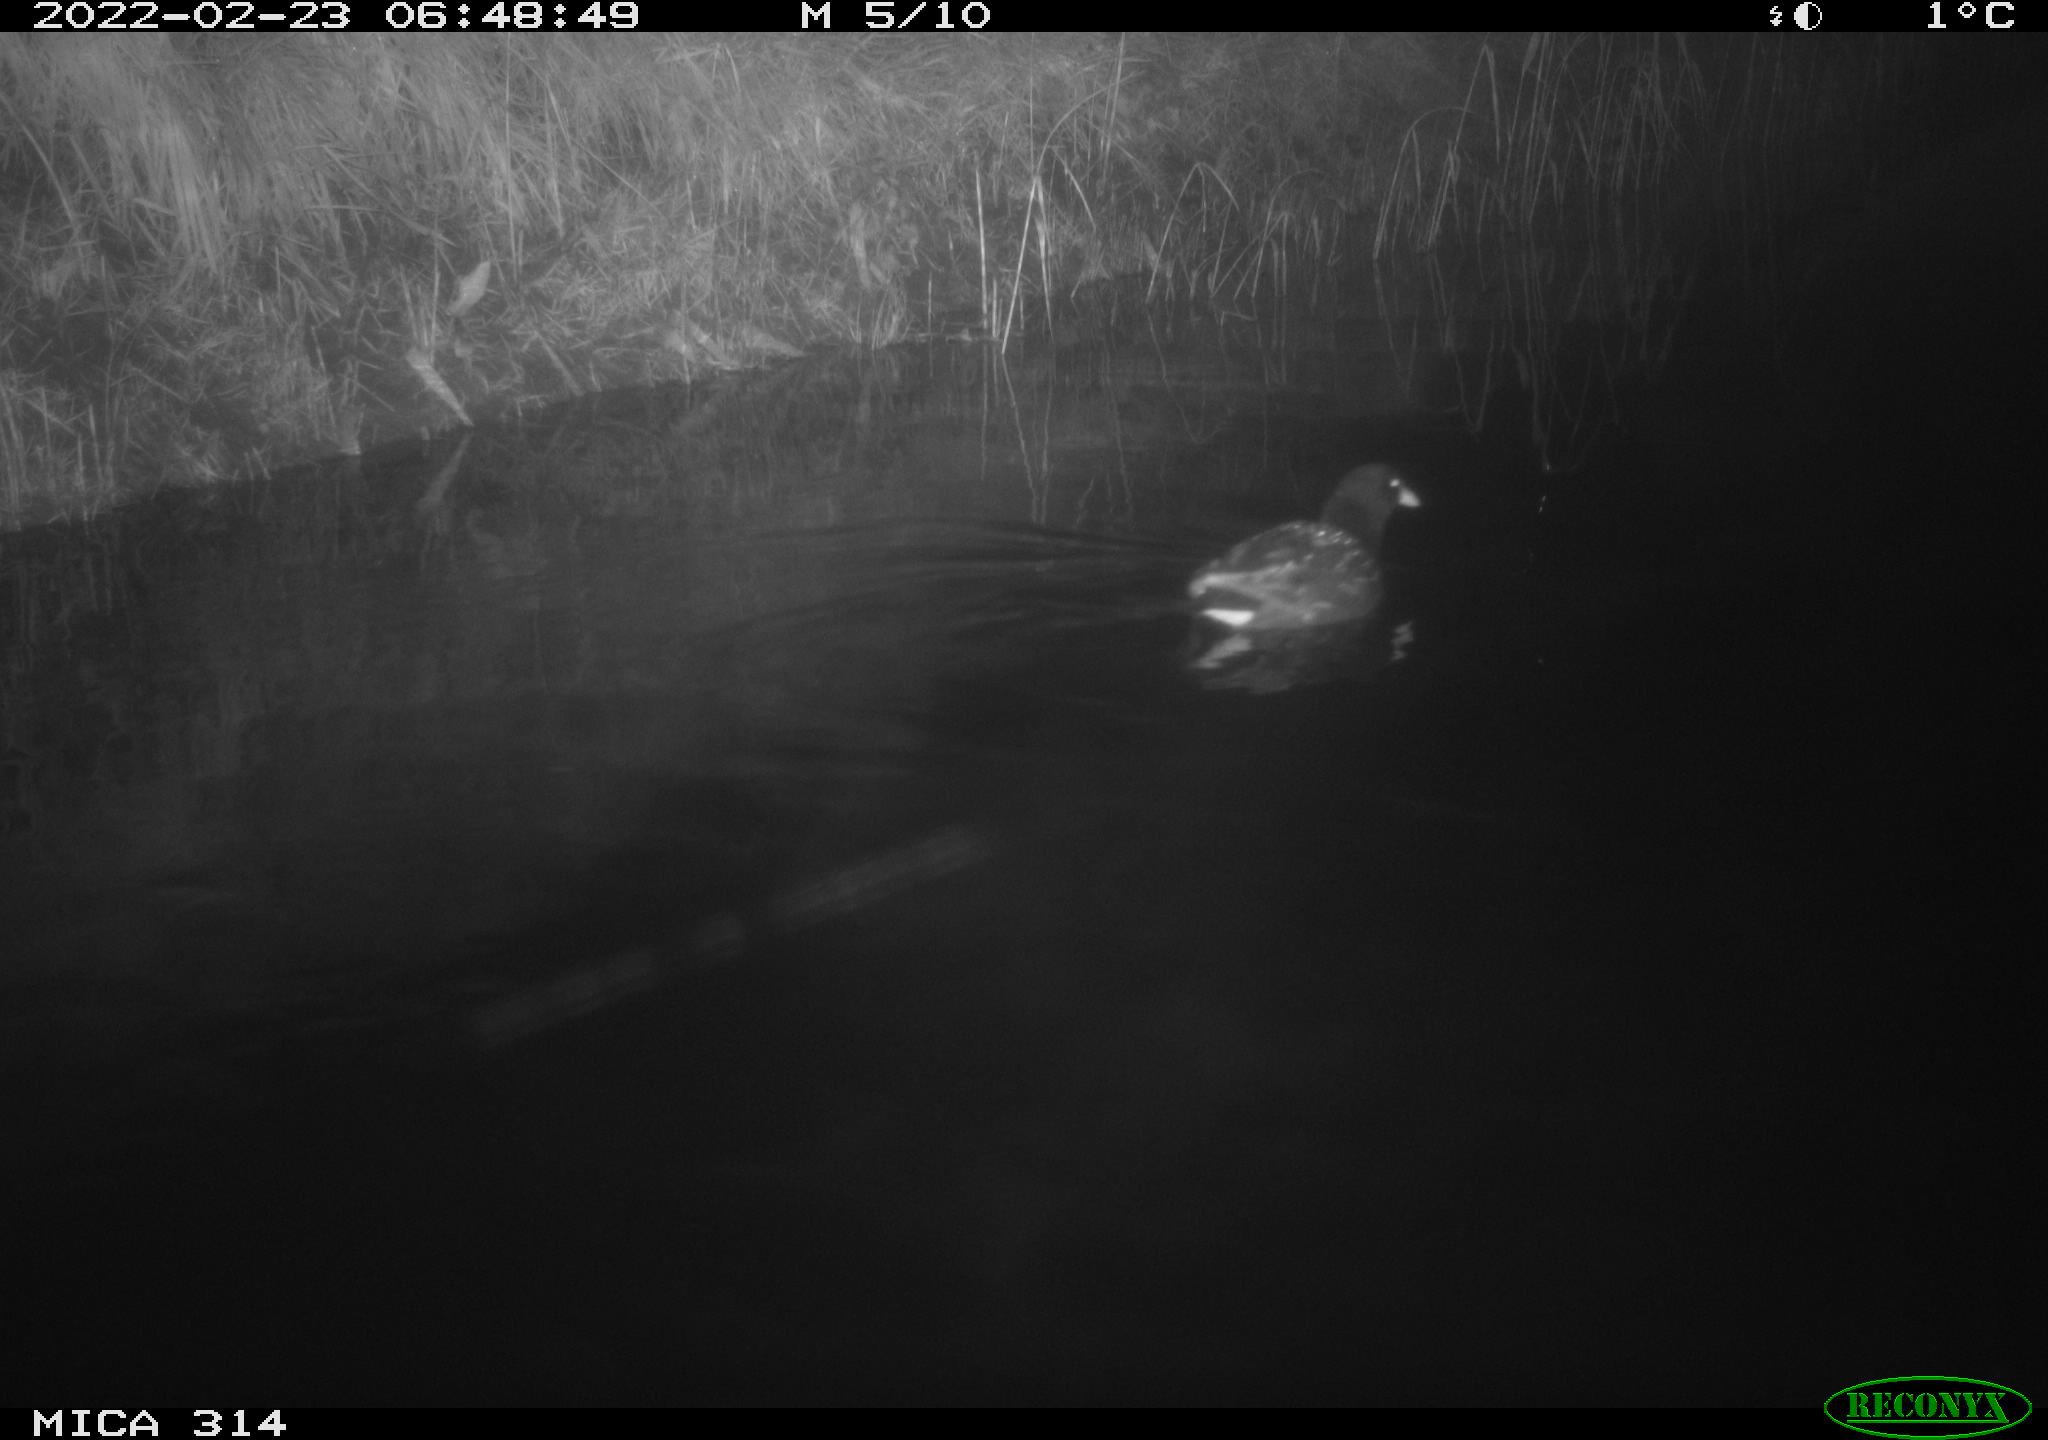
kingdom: Animalia
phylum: Chordata
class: Aves
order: Gruiformes
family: Rallidae
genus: Gallinula
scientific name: Gallinula chloropus
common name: Common moorhen
